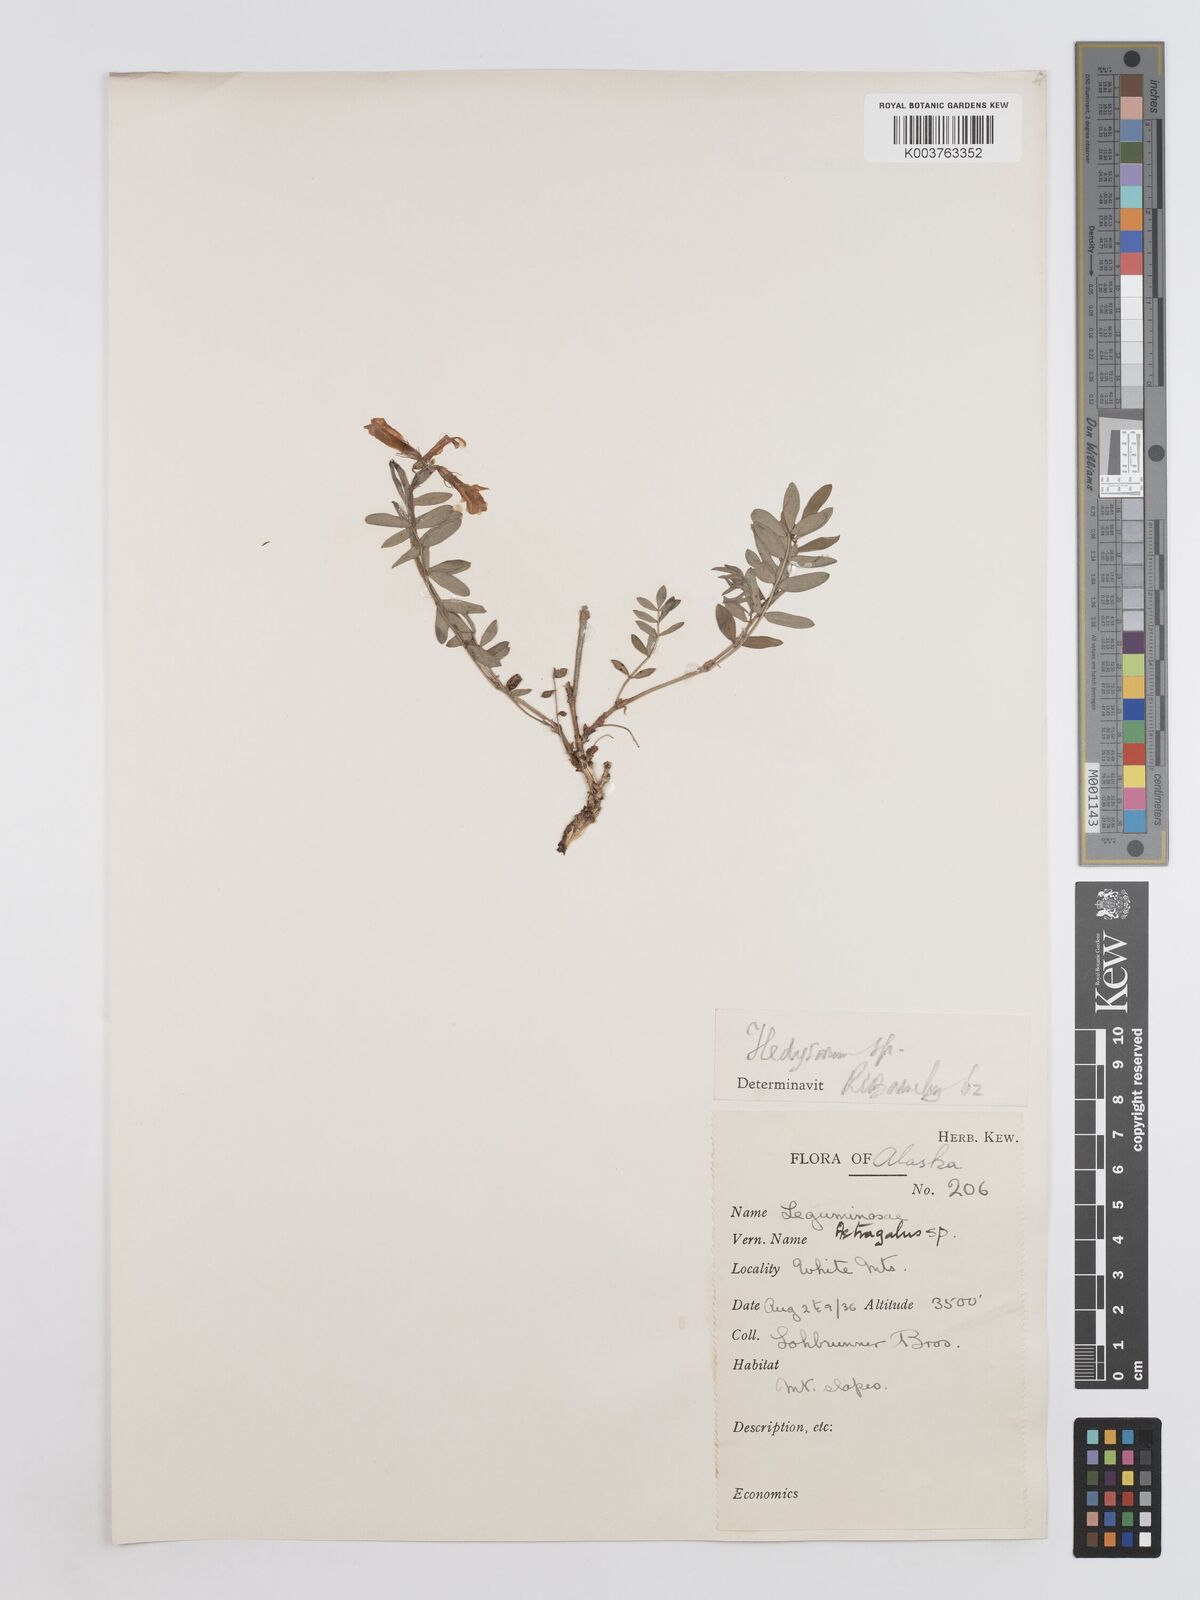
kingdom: Plantae
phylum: Tracheophyta
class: Magnoliopsida
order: Fabales
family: Fabaceae
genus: Hedysarum
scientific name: Hedysarum
